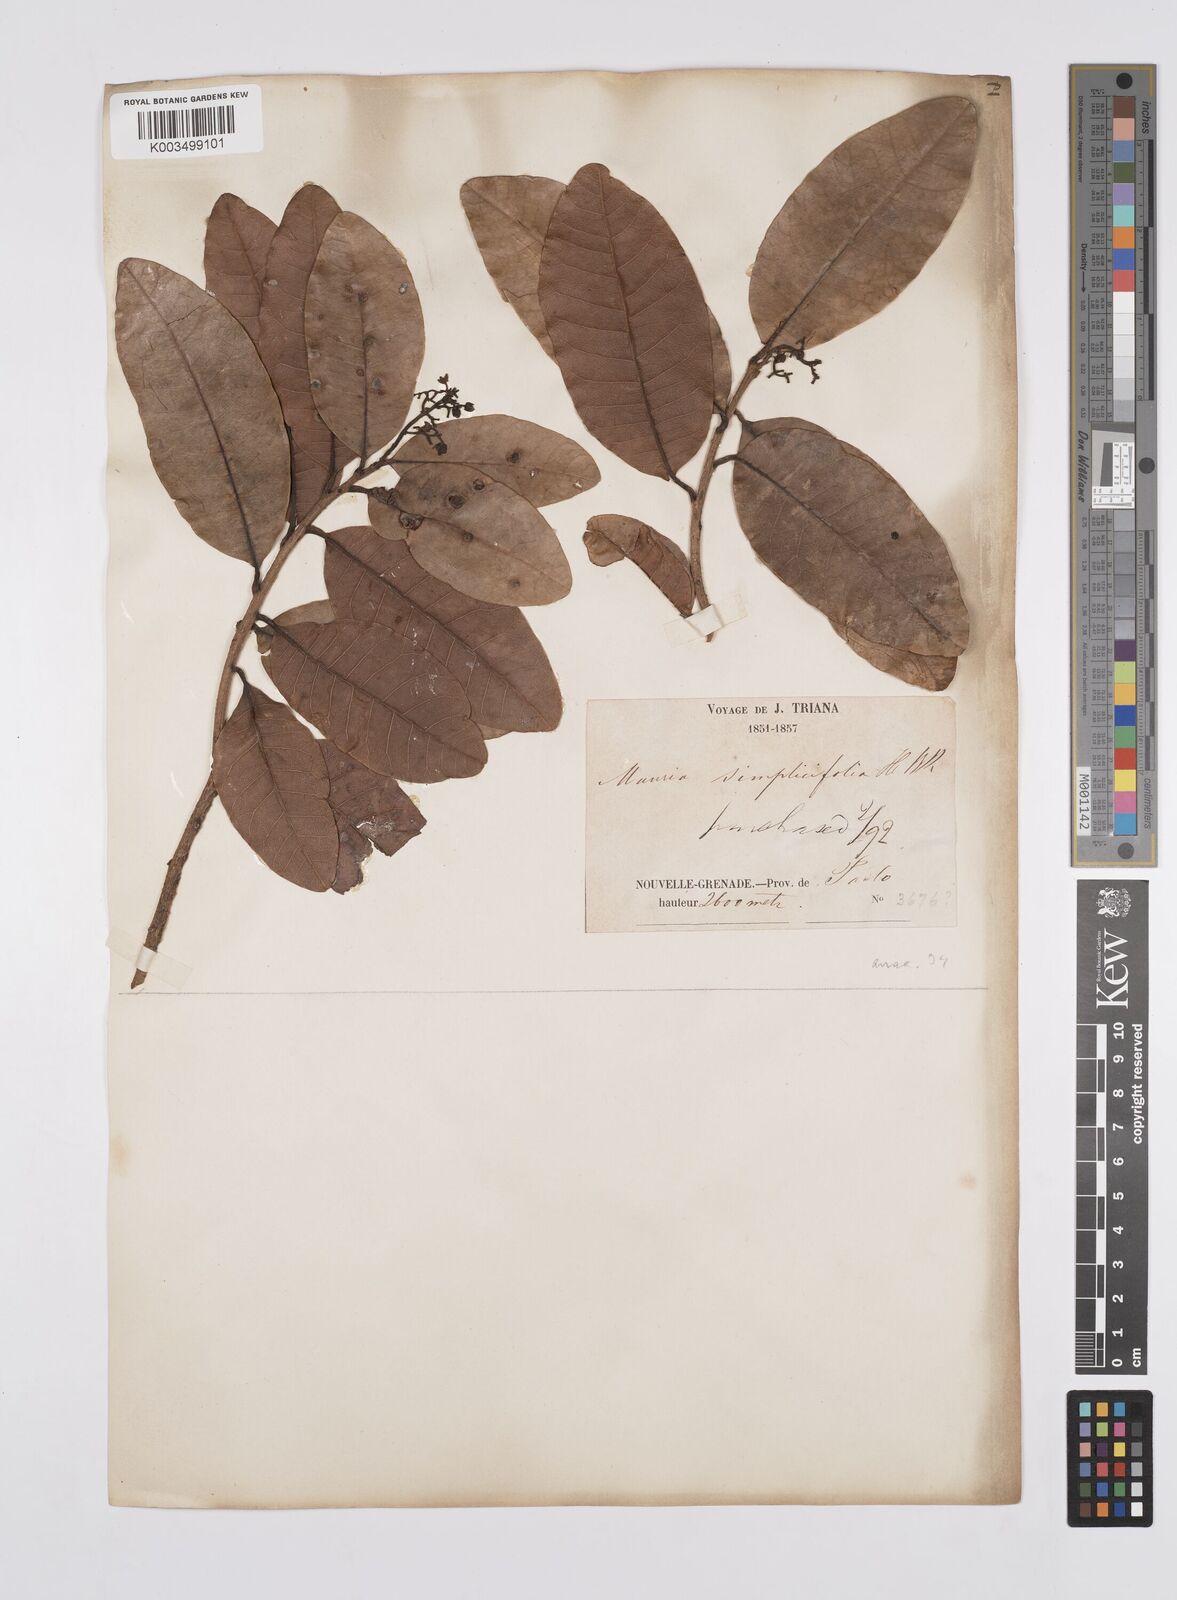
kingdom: Plantae
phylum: Tracheophyta
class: Magnoliopsida
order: Sapindales
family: Anacardiaceae
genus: Mauria
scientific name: Mauria simplicifolia
